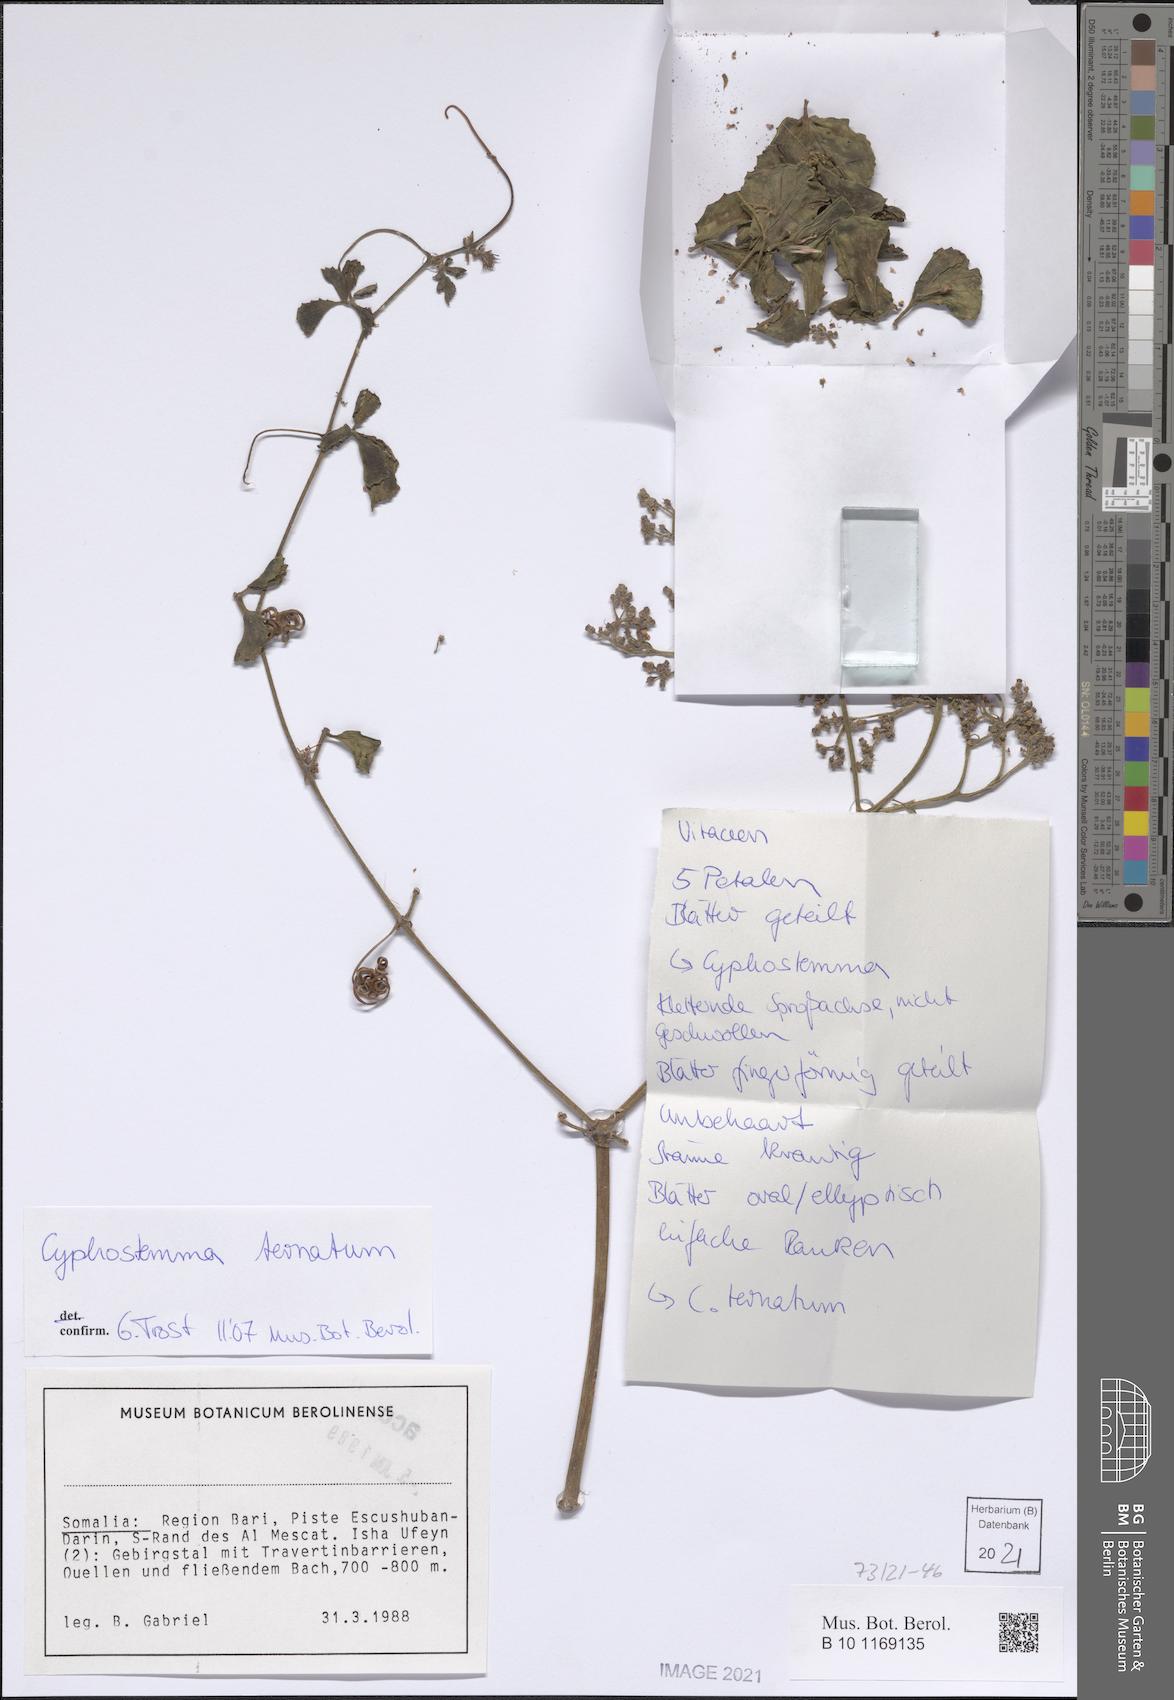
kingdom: Plantae
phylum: Tracheophyta
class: Magnoliopsida
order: Vitales
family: Vitaceae
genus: Cyphostemma
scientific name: Cyphostemma digitatum
